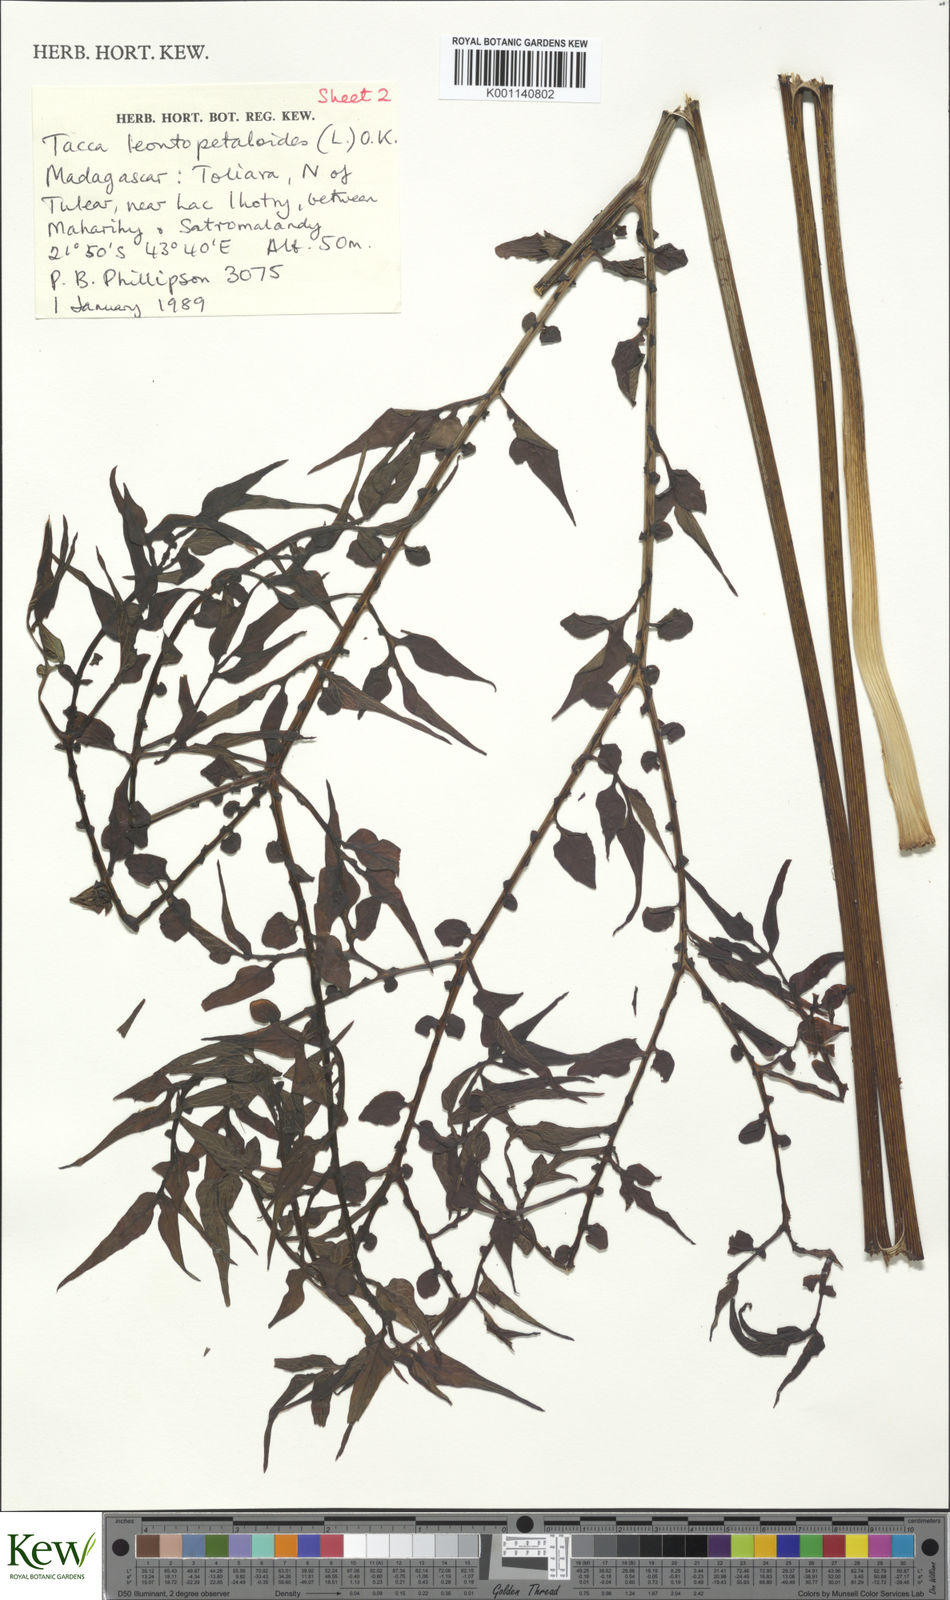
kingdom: Plantae
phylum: Tracheophyta
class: Liliopsida
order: Dioscoreales
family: Dioscoreaceae
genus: Tacca
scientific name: Tacca leontopetaloides
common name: Arrowroot
